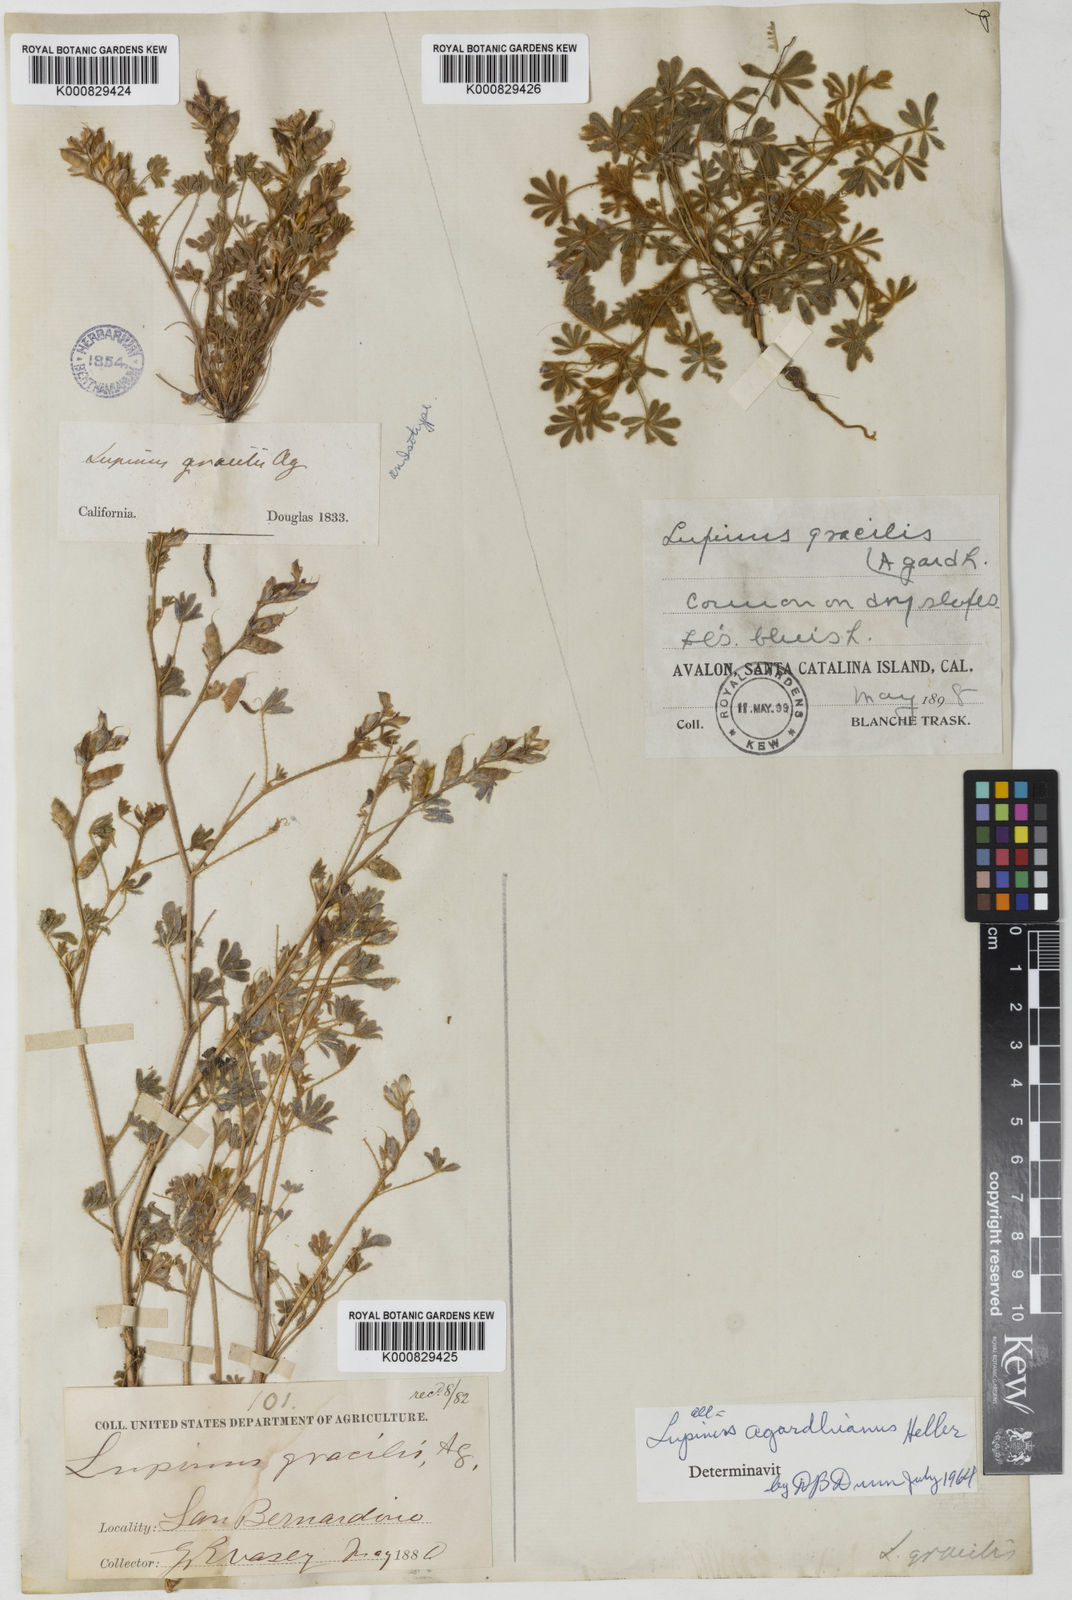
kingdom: Plantae
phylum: Tracheophyta
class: Magnoliopsida
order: Fabales
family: Fabaceae
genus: Lupinus
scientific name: Lupinus agardhianus
